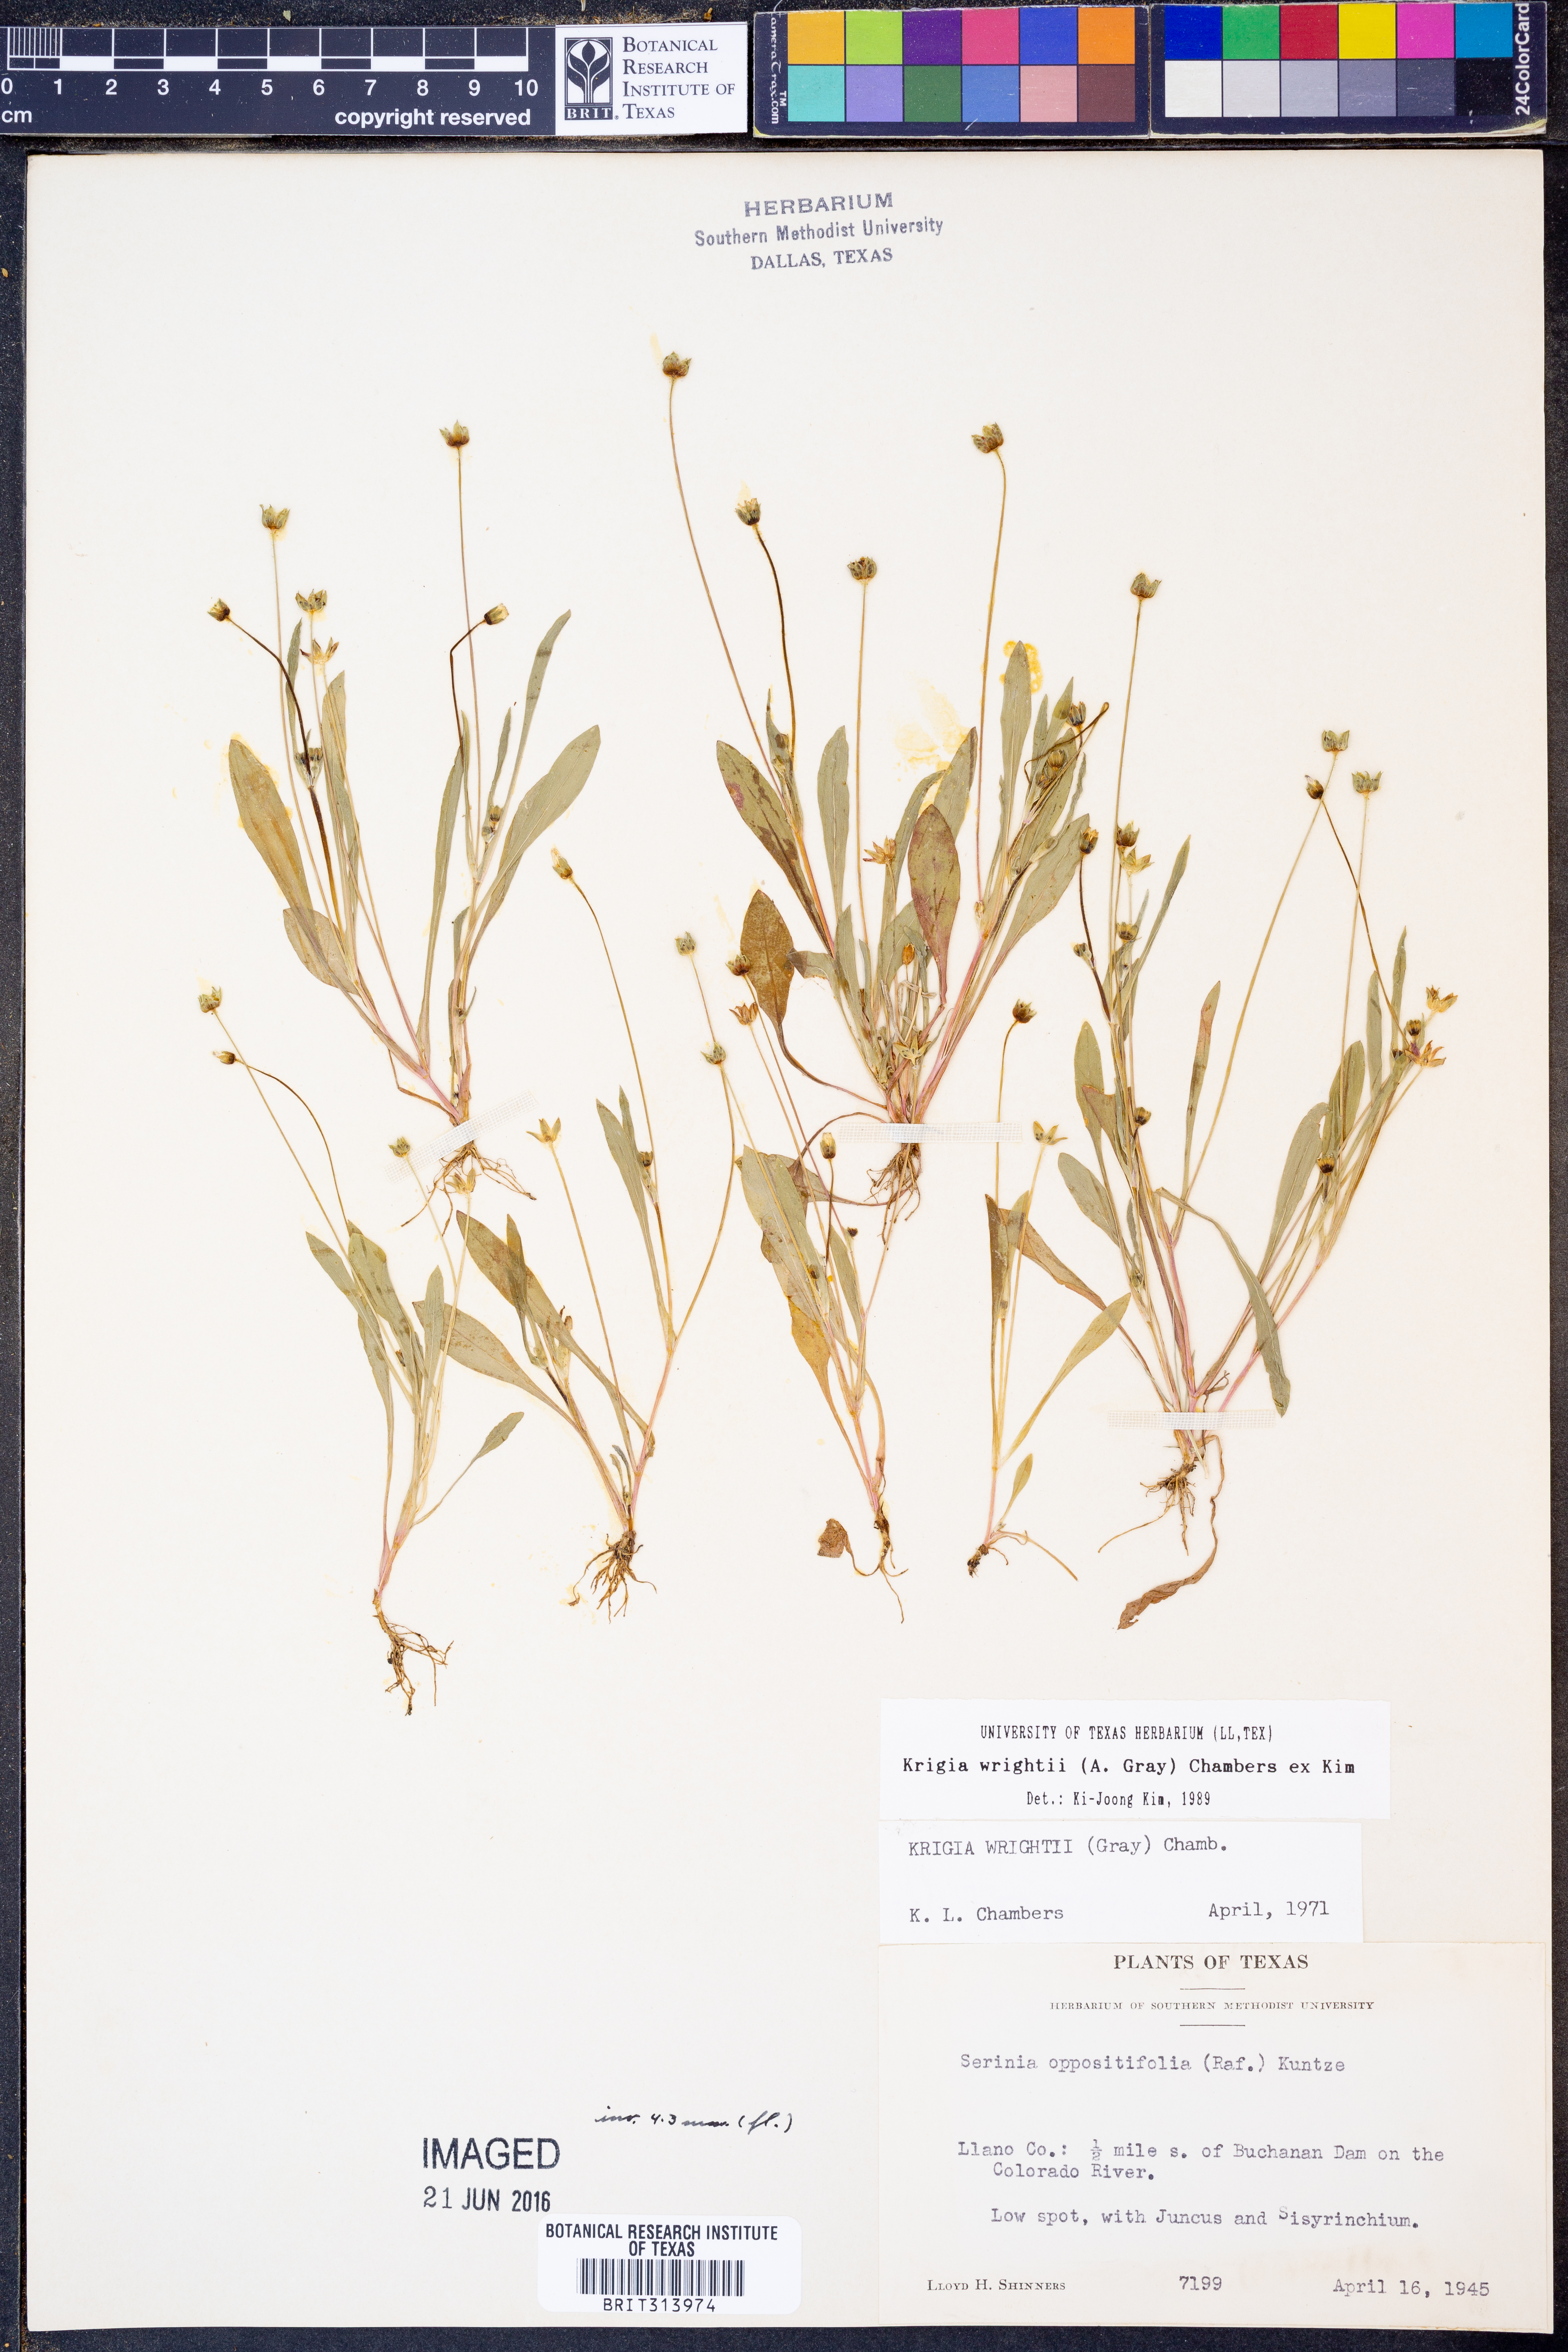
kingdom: Plantae
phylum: Tracheophyta
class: Magnoliopsida
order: Asterales
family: Asteraceae
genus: Krigia
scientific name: Krigia wrightii
